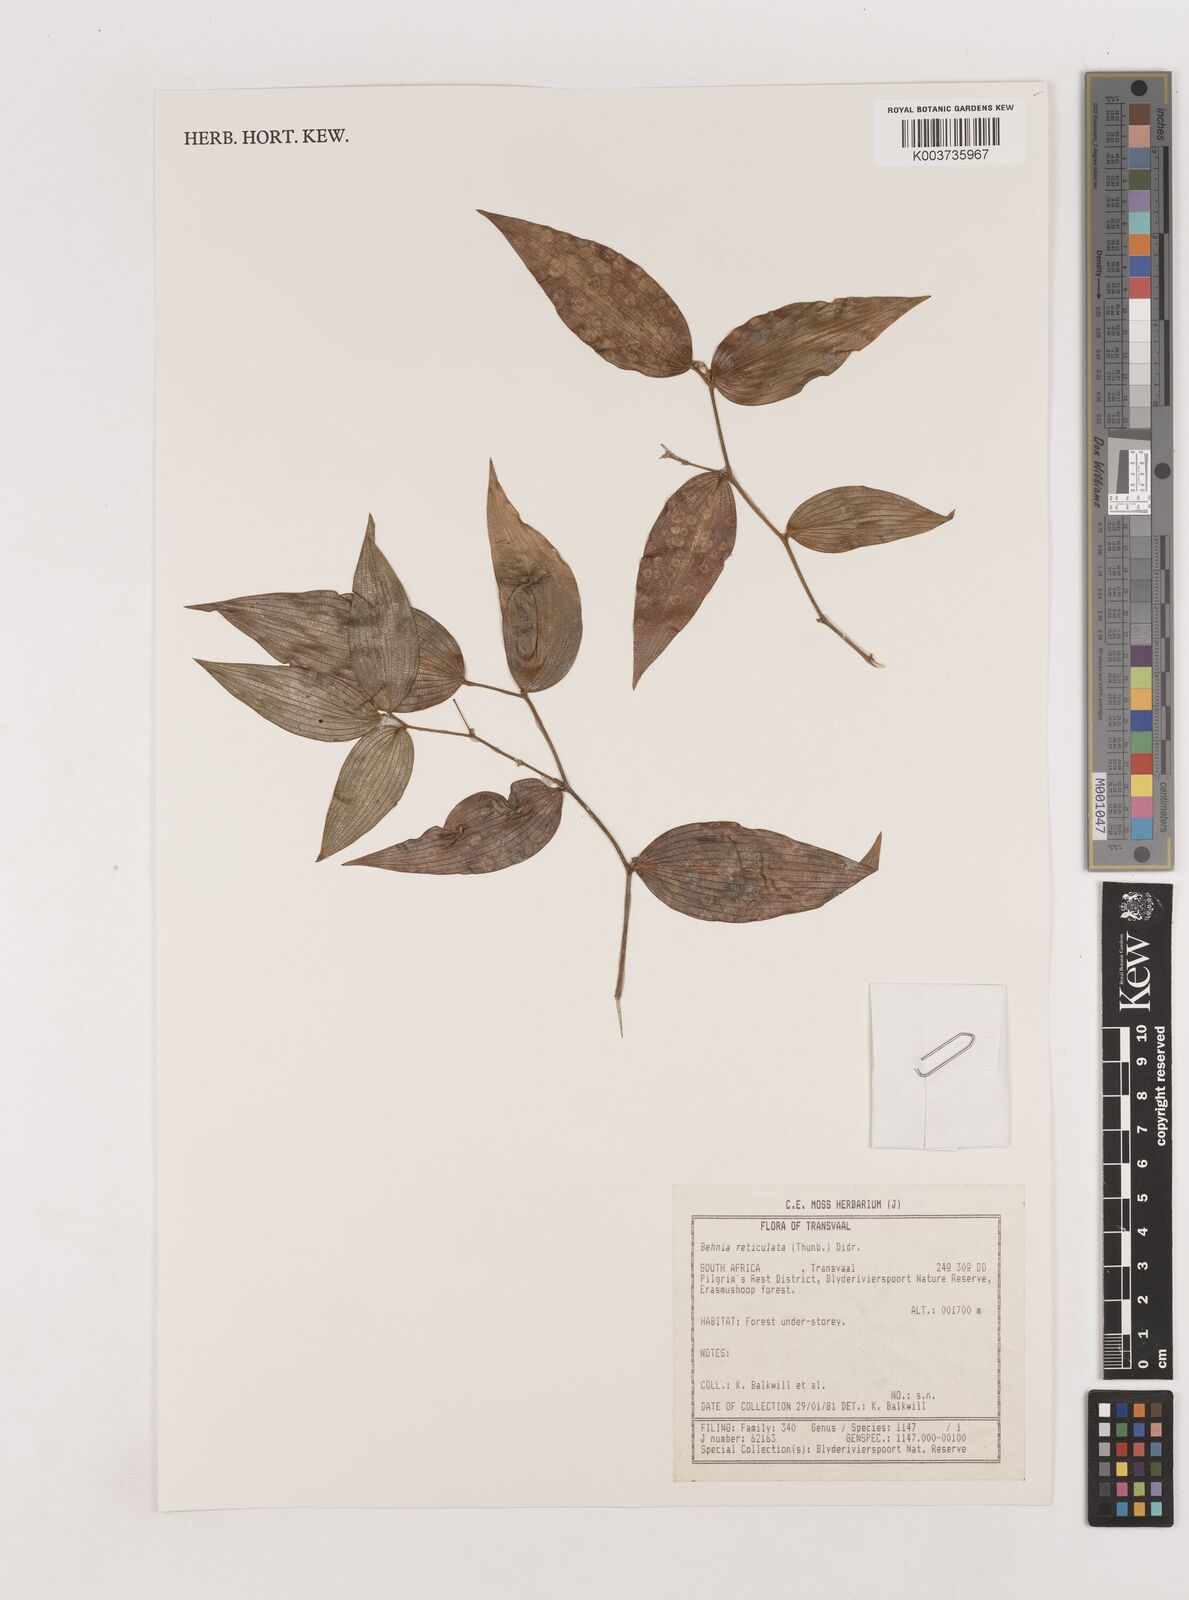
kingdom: Plantae
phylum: Tracheophyta
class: Liliopsida
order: Asparagales
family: Asparagaceae
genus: Behnia
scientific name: Behnia reticulata
